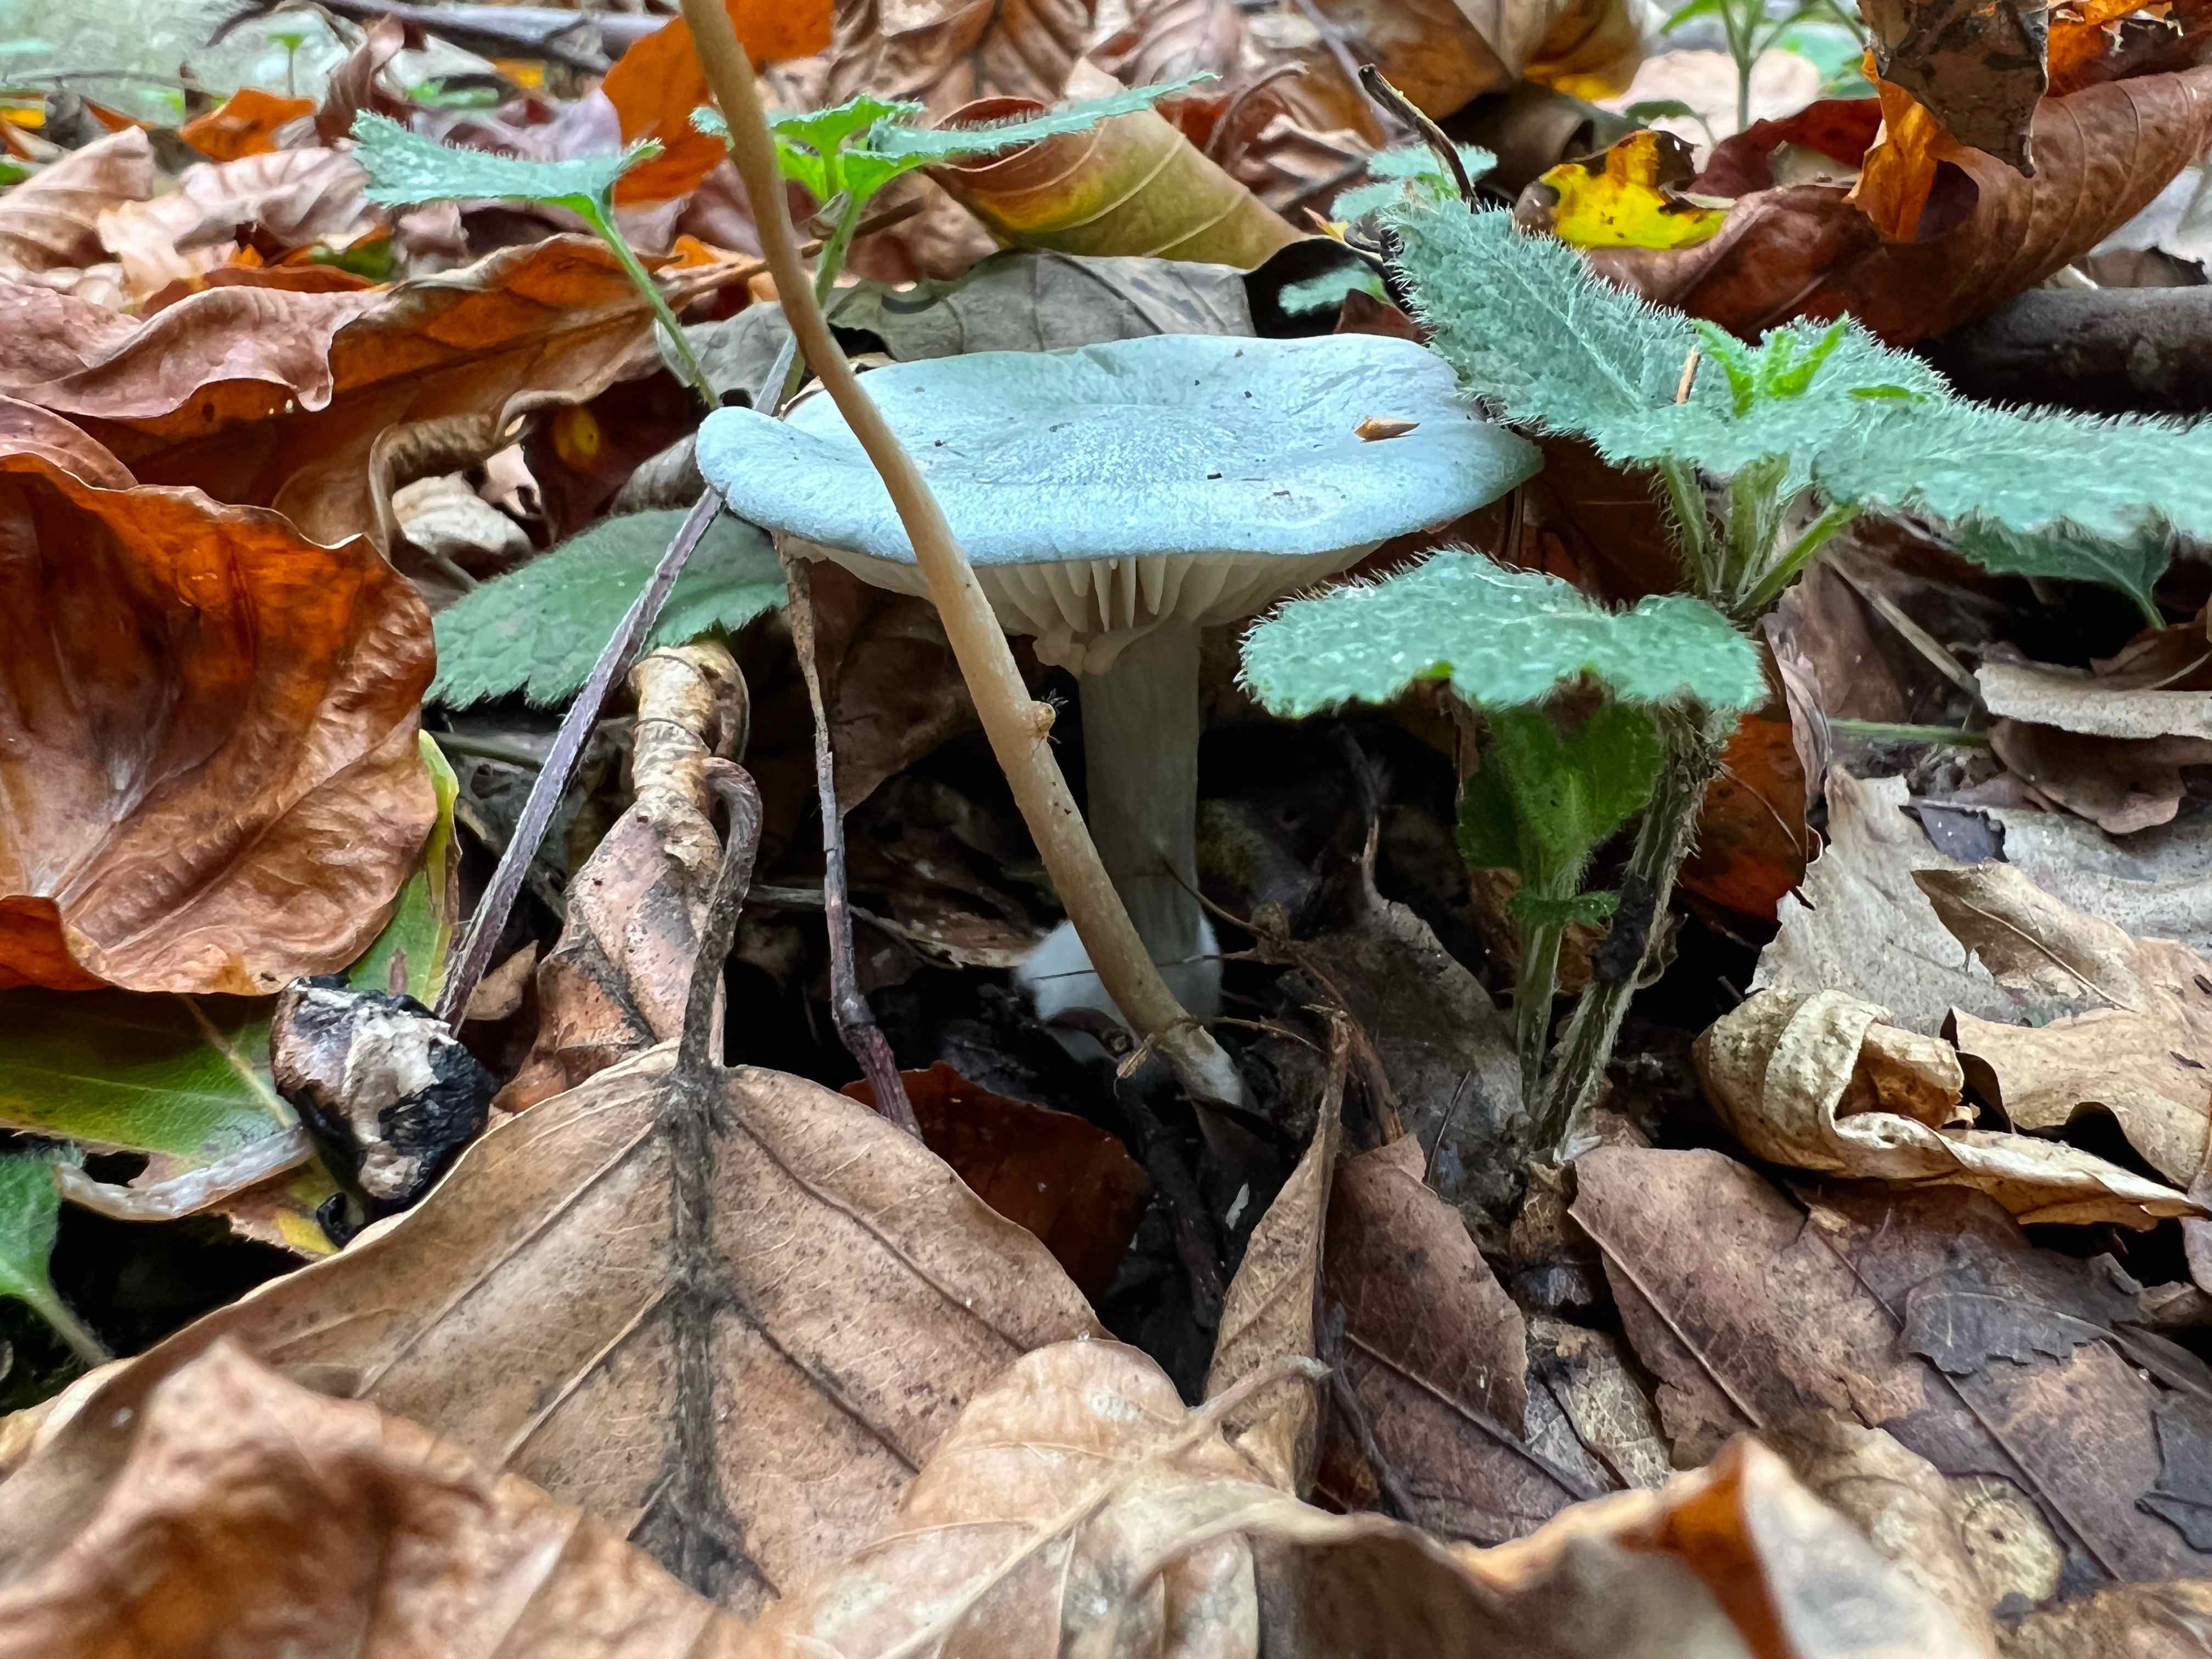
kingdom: Fungi
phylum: Basidiomycota
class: Agaricomycetes
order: Agaricales
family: Tricholomataceae
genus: Clitocybe
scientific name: Clitocybe odora
